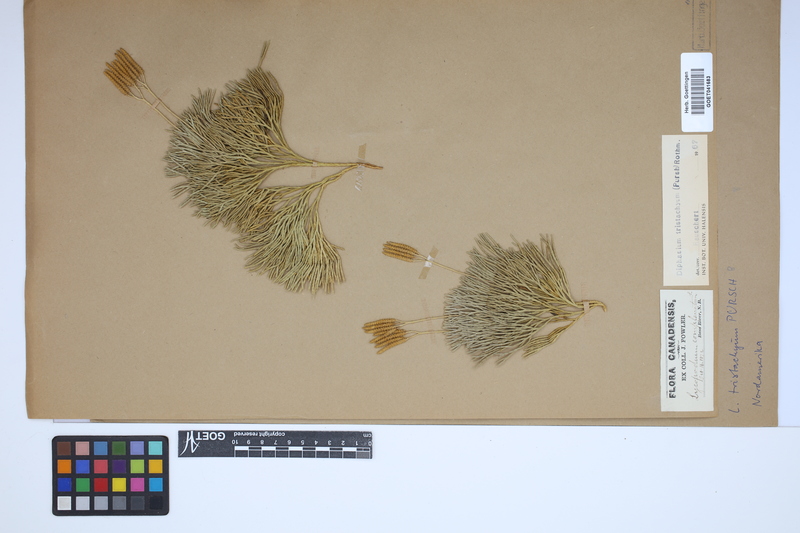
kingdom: Plantae
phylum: Tracheophyta
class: Lycopodiopsida
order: Lycopodiales
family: Lycopodiaceae
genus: Diphasiastrum
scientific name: Diphasiastrum tristachyum
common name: Blue ground-cedar
